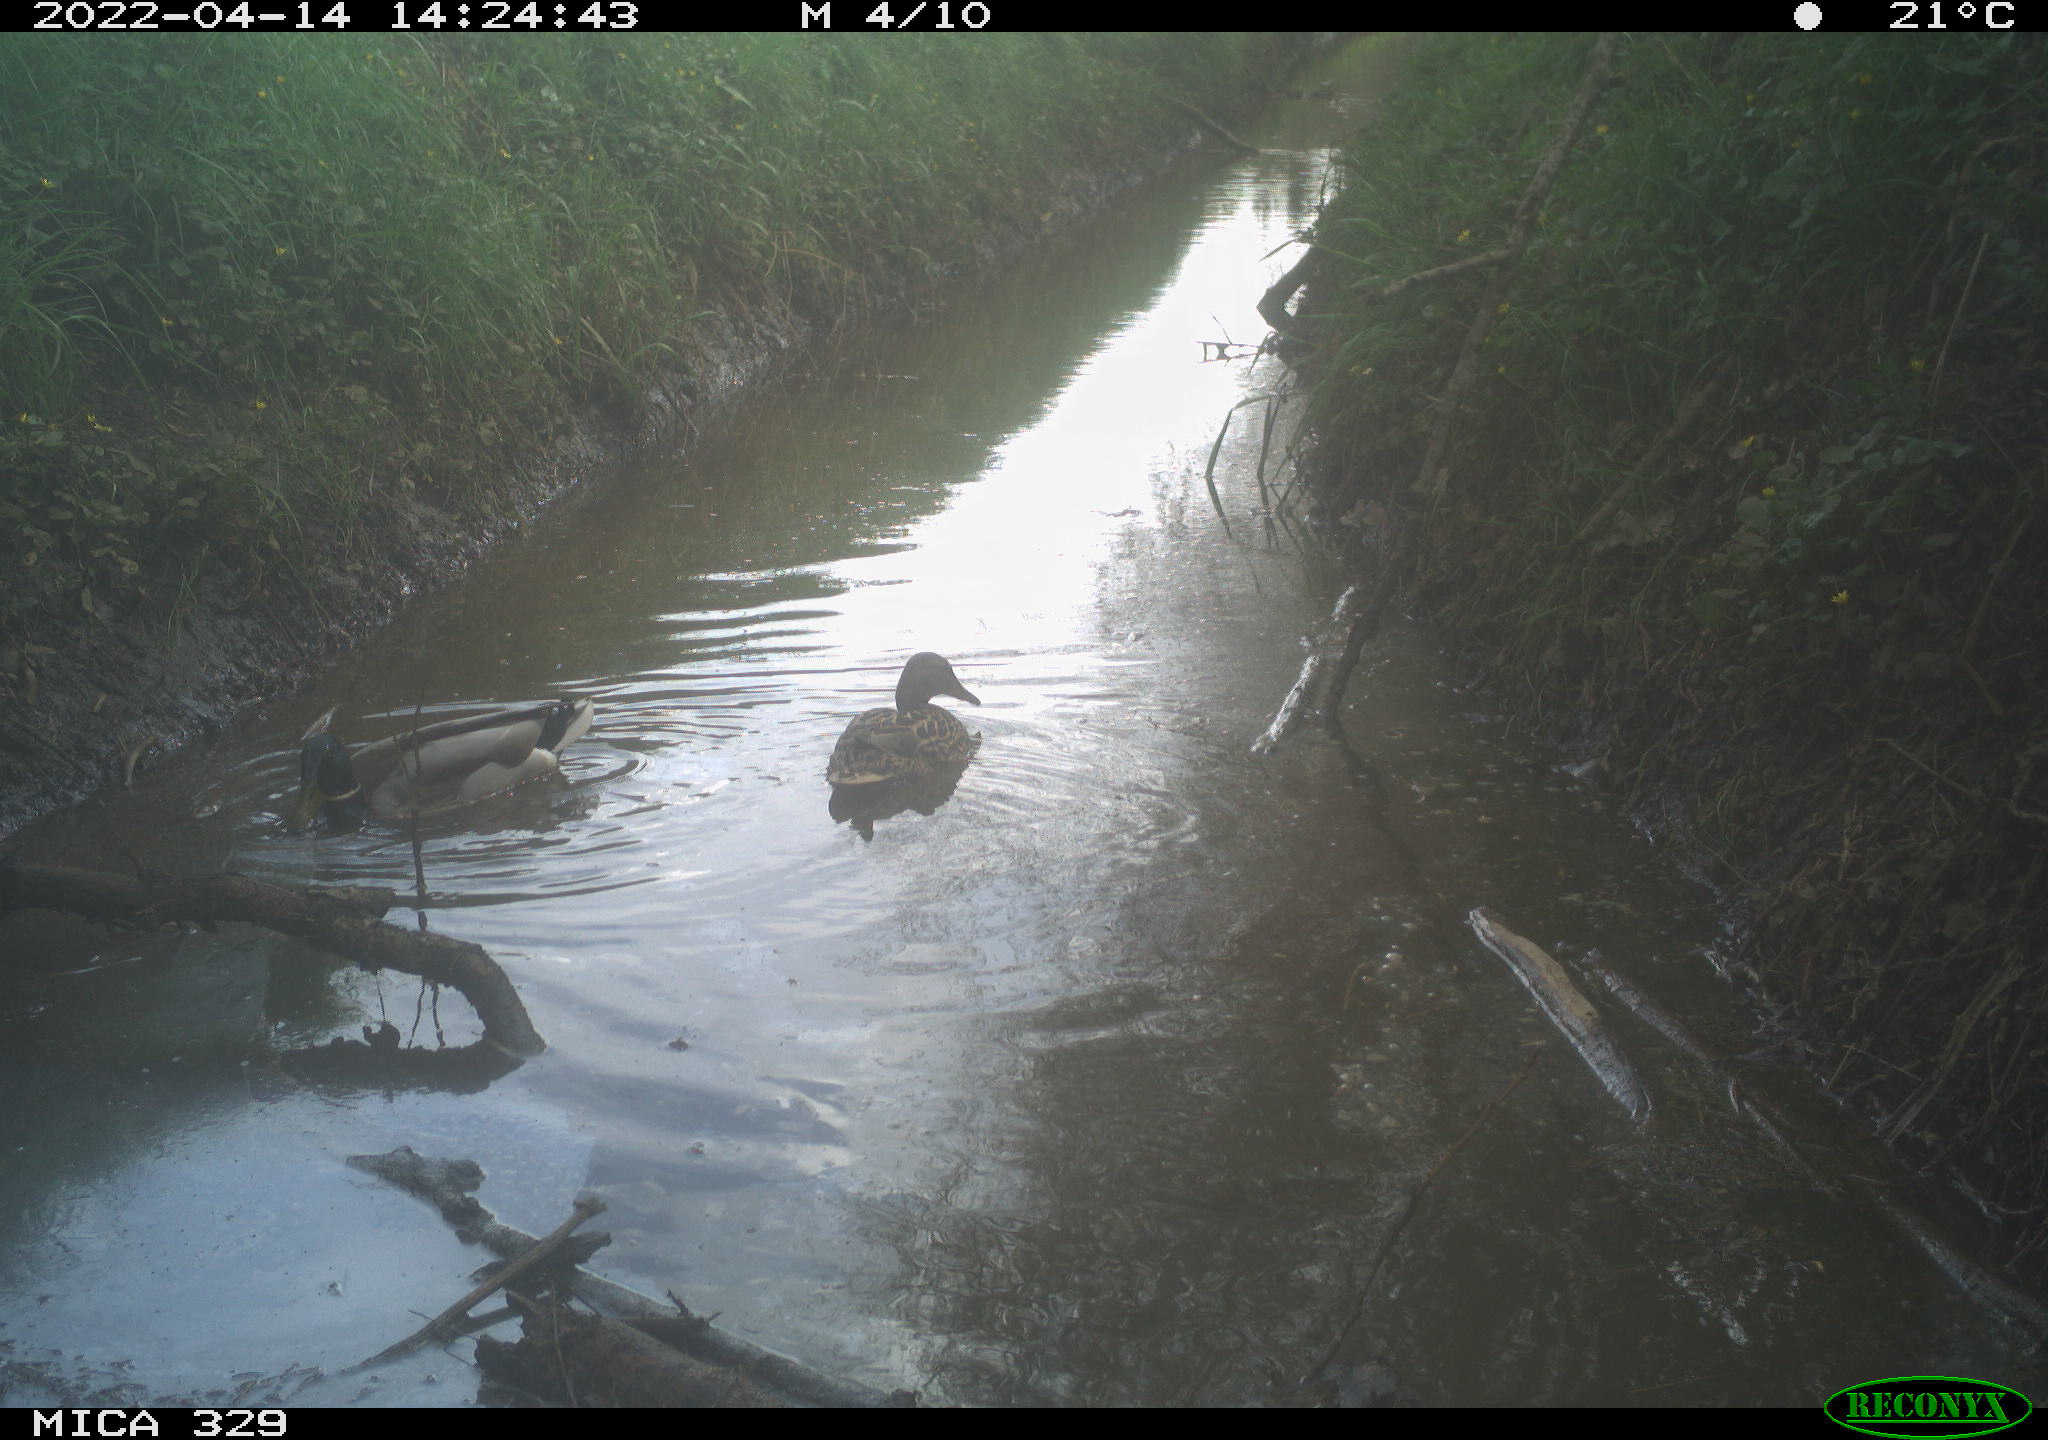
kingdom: Animalia
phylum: Chordata
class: Aves
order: Anseriformes
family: Anatidae
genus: Anas
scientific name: Anas platyrhynchos
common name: Mallard
